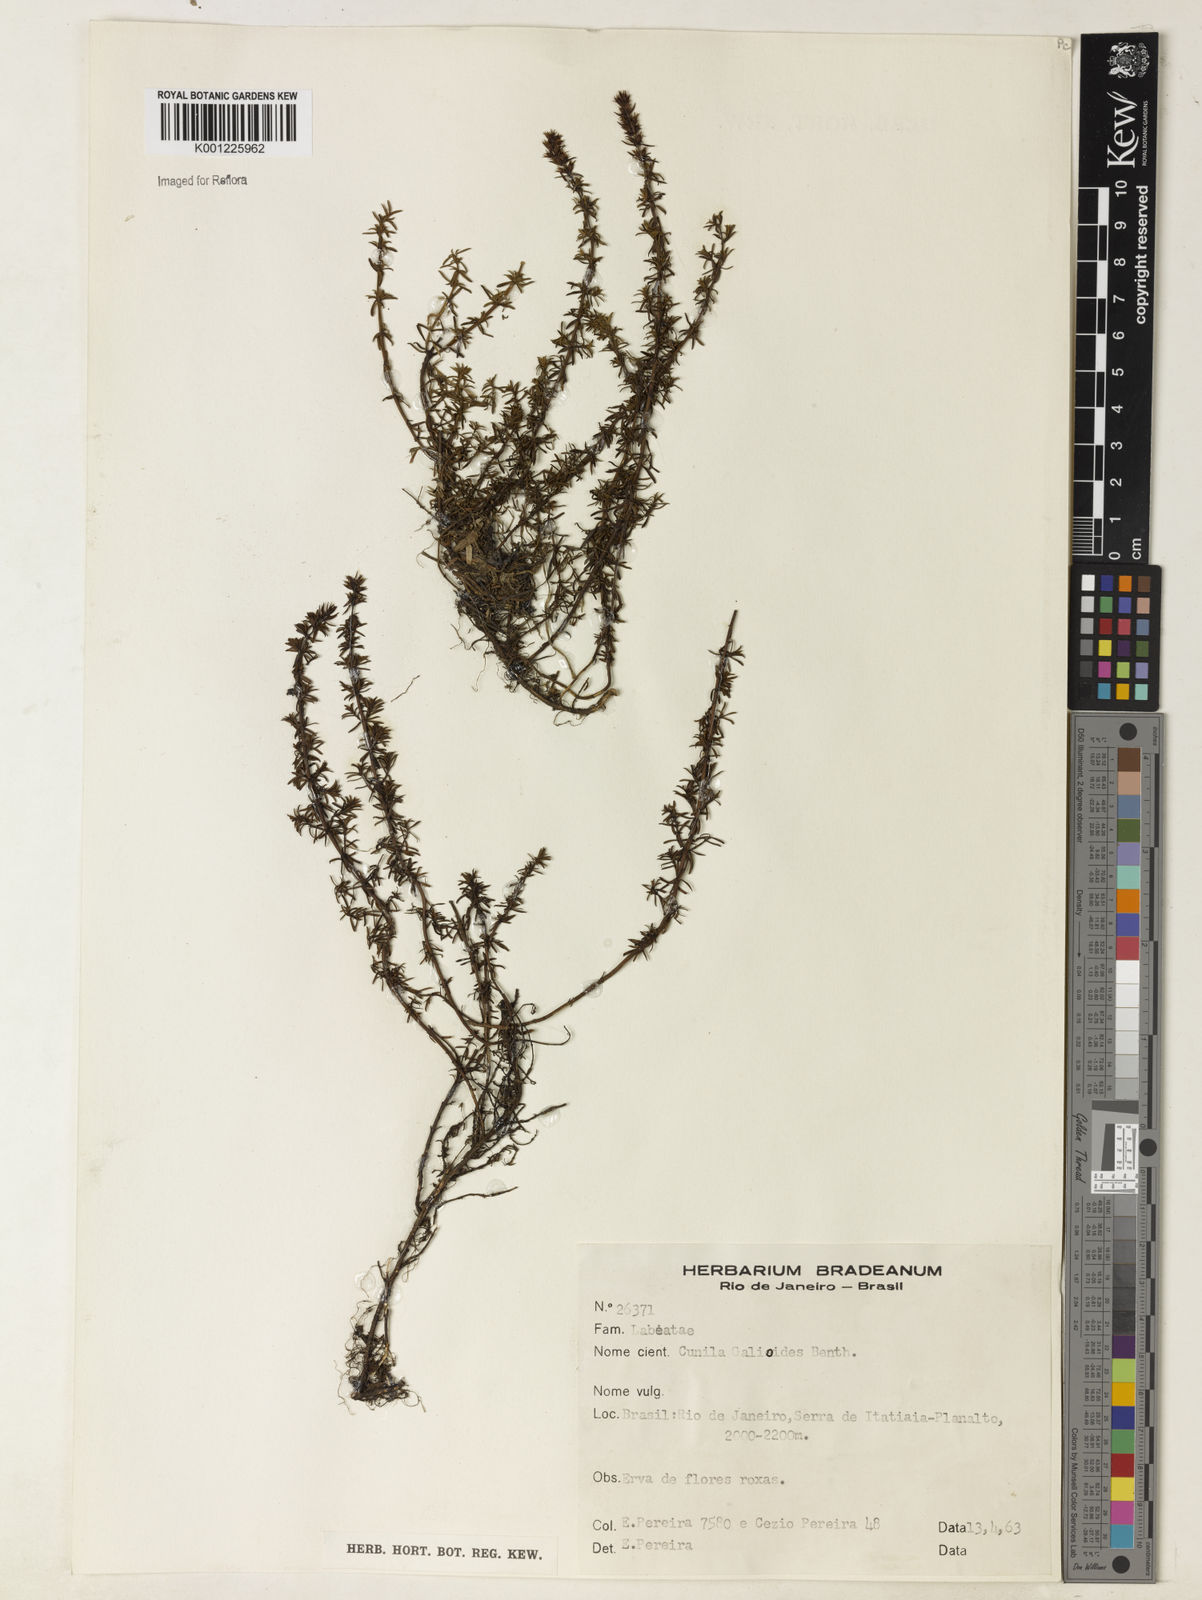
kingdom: Plantae
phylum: Tracheophyta
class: Magnoliopsida
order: Lamiales
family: Lamiaceae
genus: Cunila
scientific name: Cunila galioides
